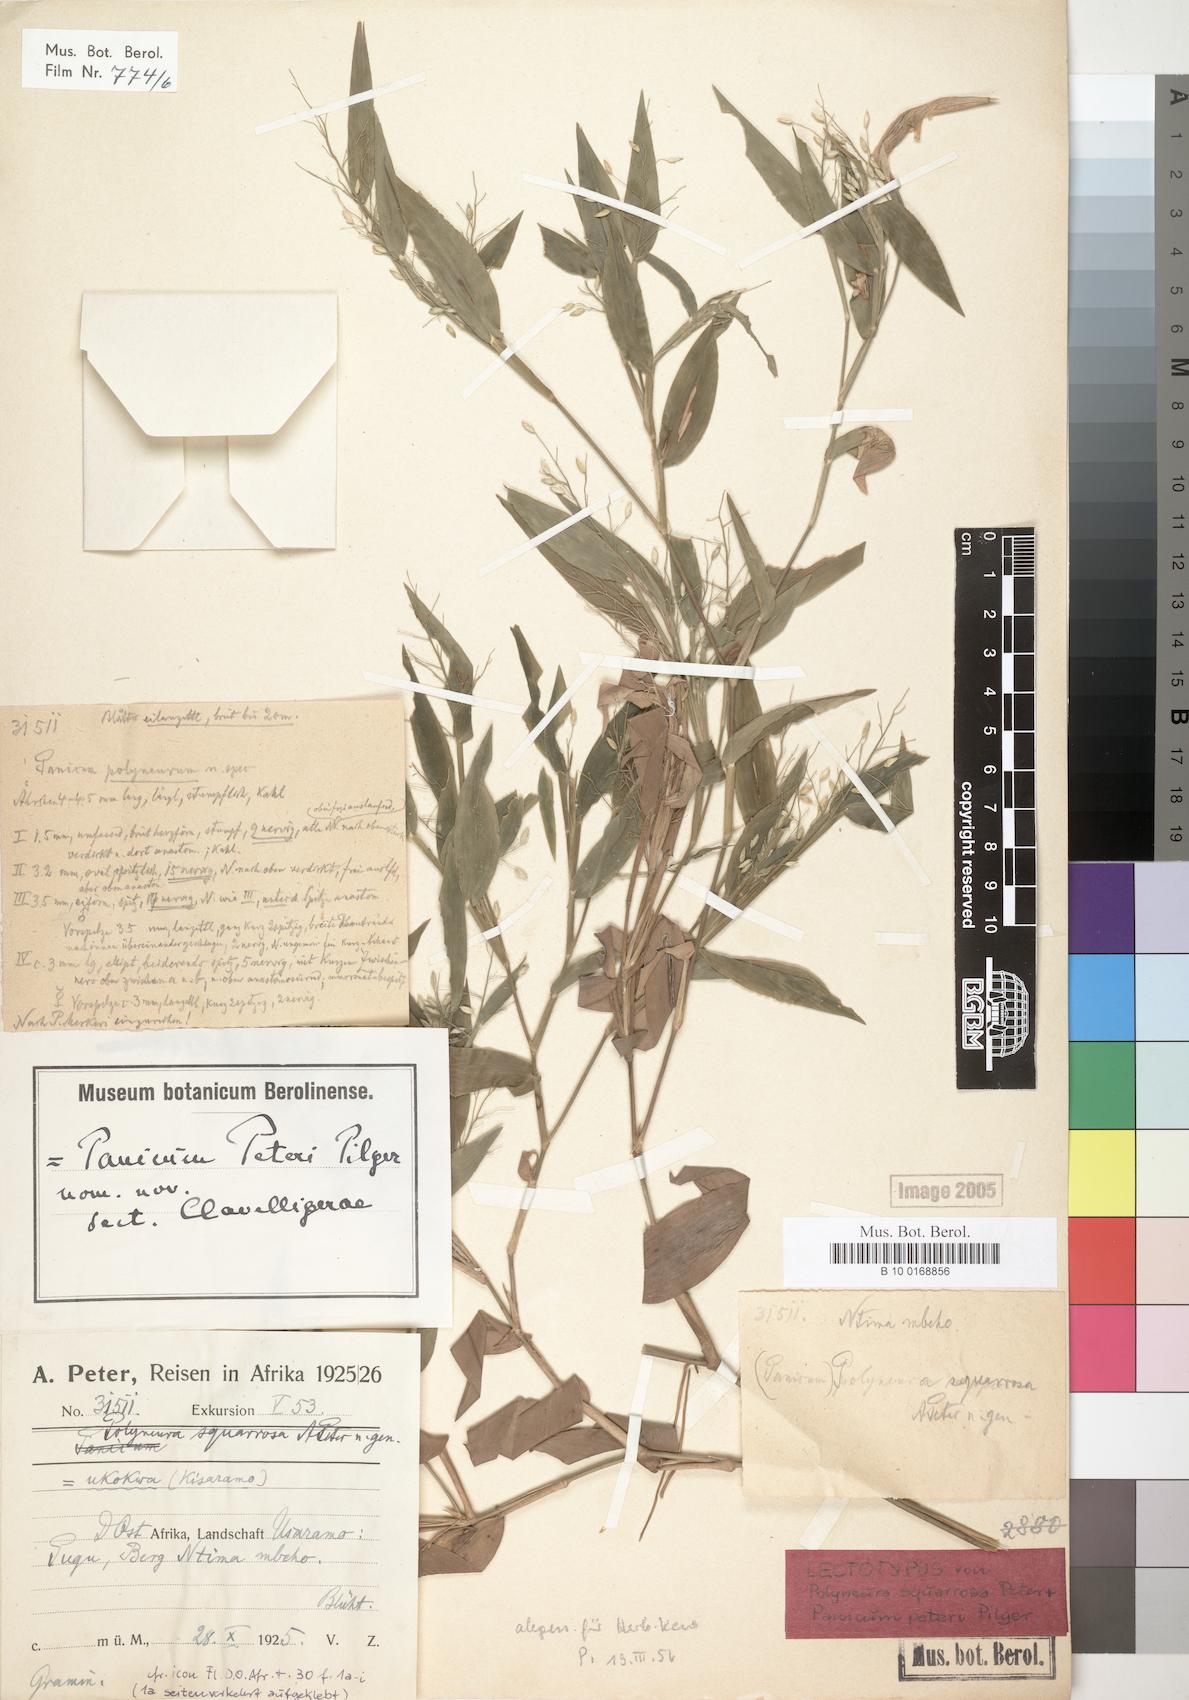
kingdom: Plantae
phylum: Tracheophyta
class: Liliopsida
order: Poales
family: Poaceae
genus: Adenochloa
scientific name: Adenochloa squarrosa
